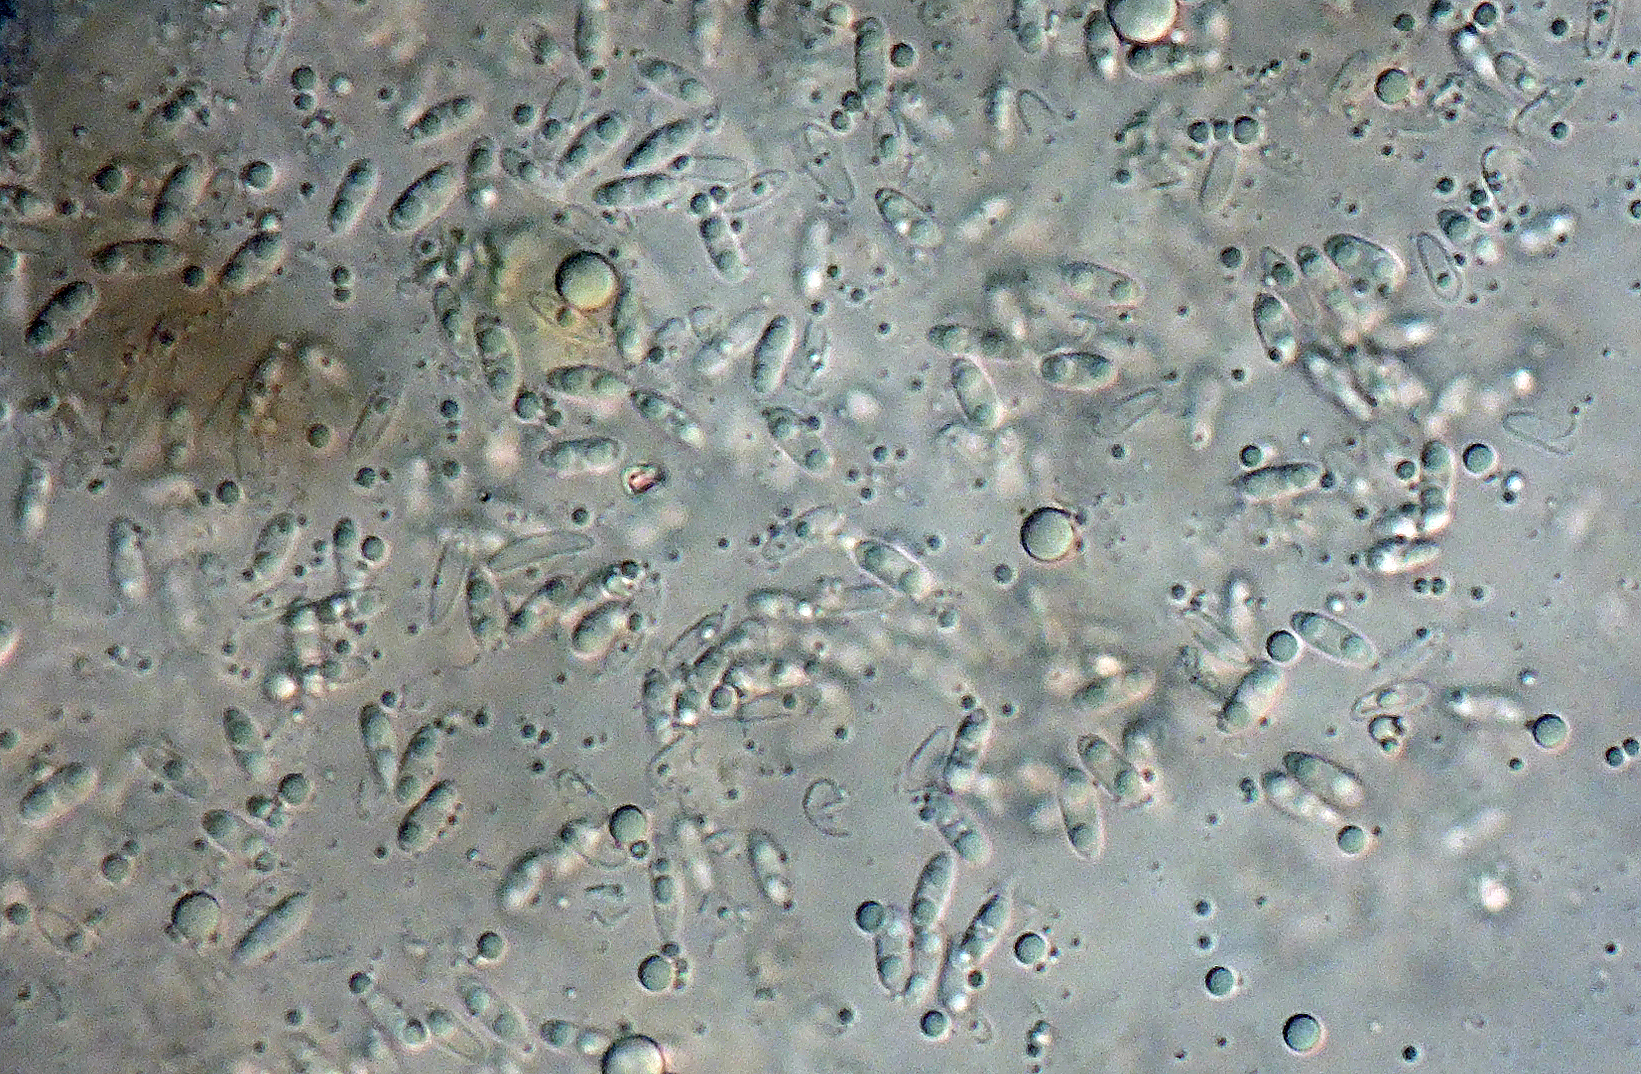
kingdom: Fungi
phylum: Ascomycota
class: Sordariomycetes
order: Diaporthales
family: Diaporthaceae
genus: Phomopsis
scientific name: Phomopsis glandicola
